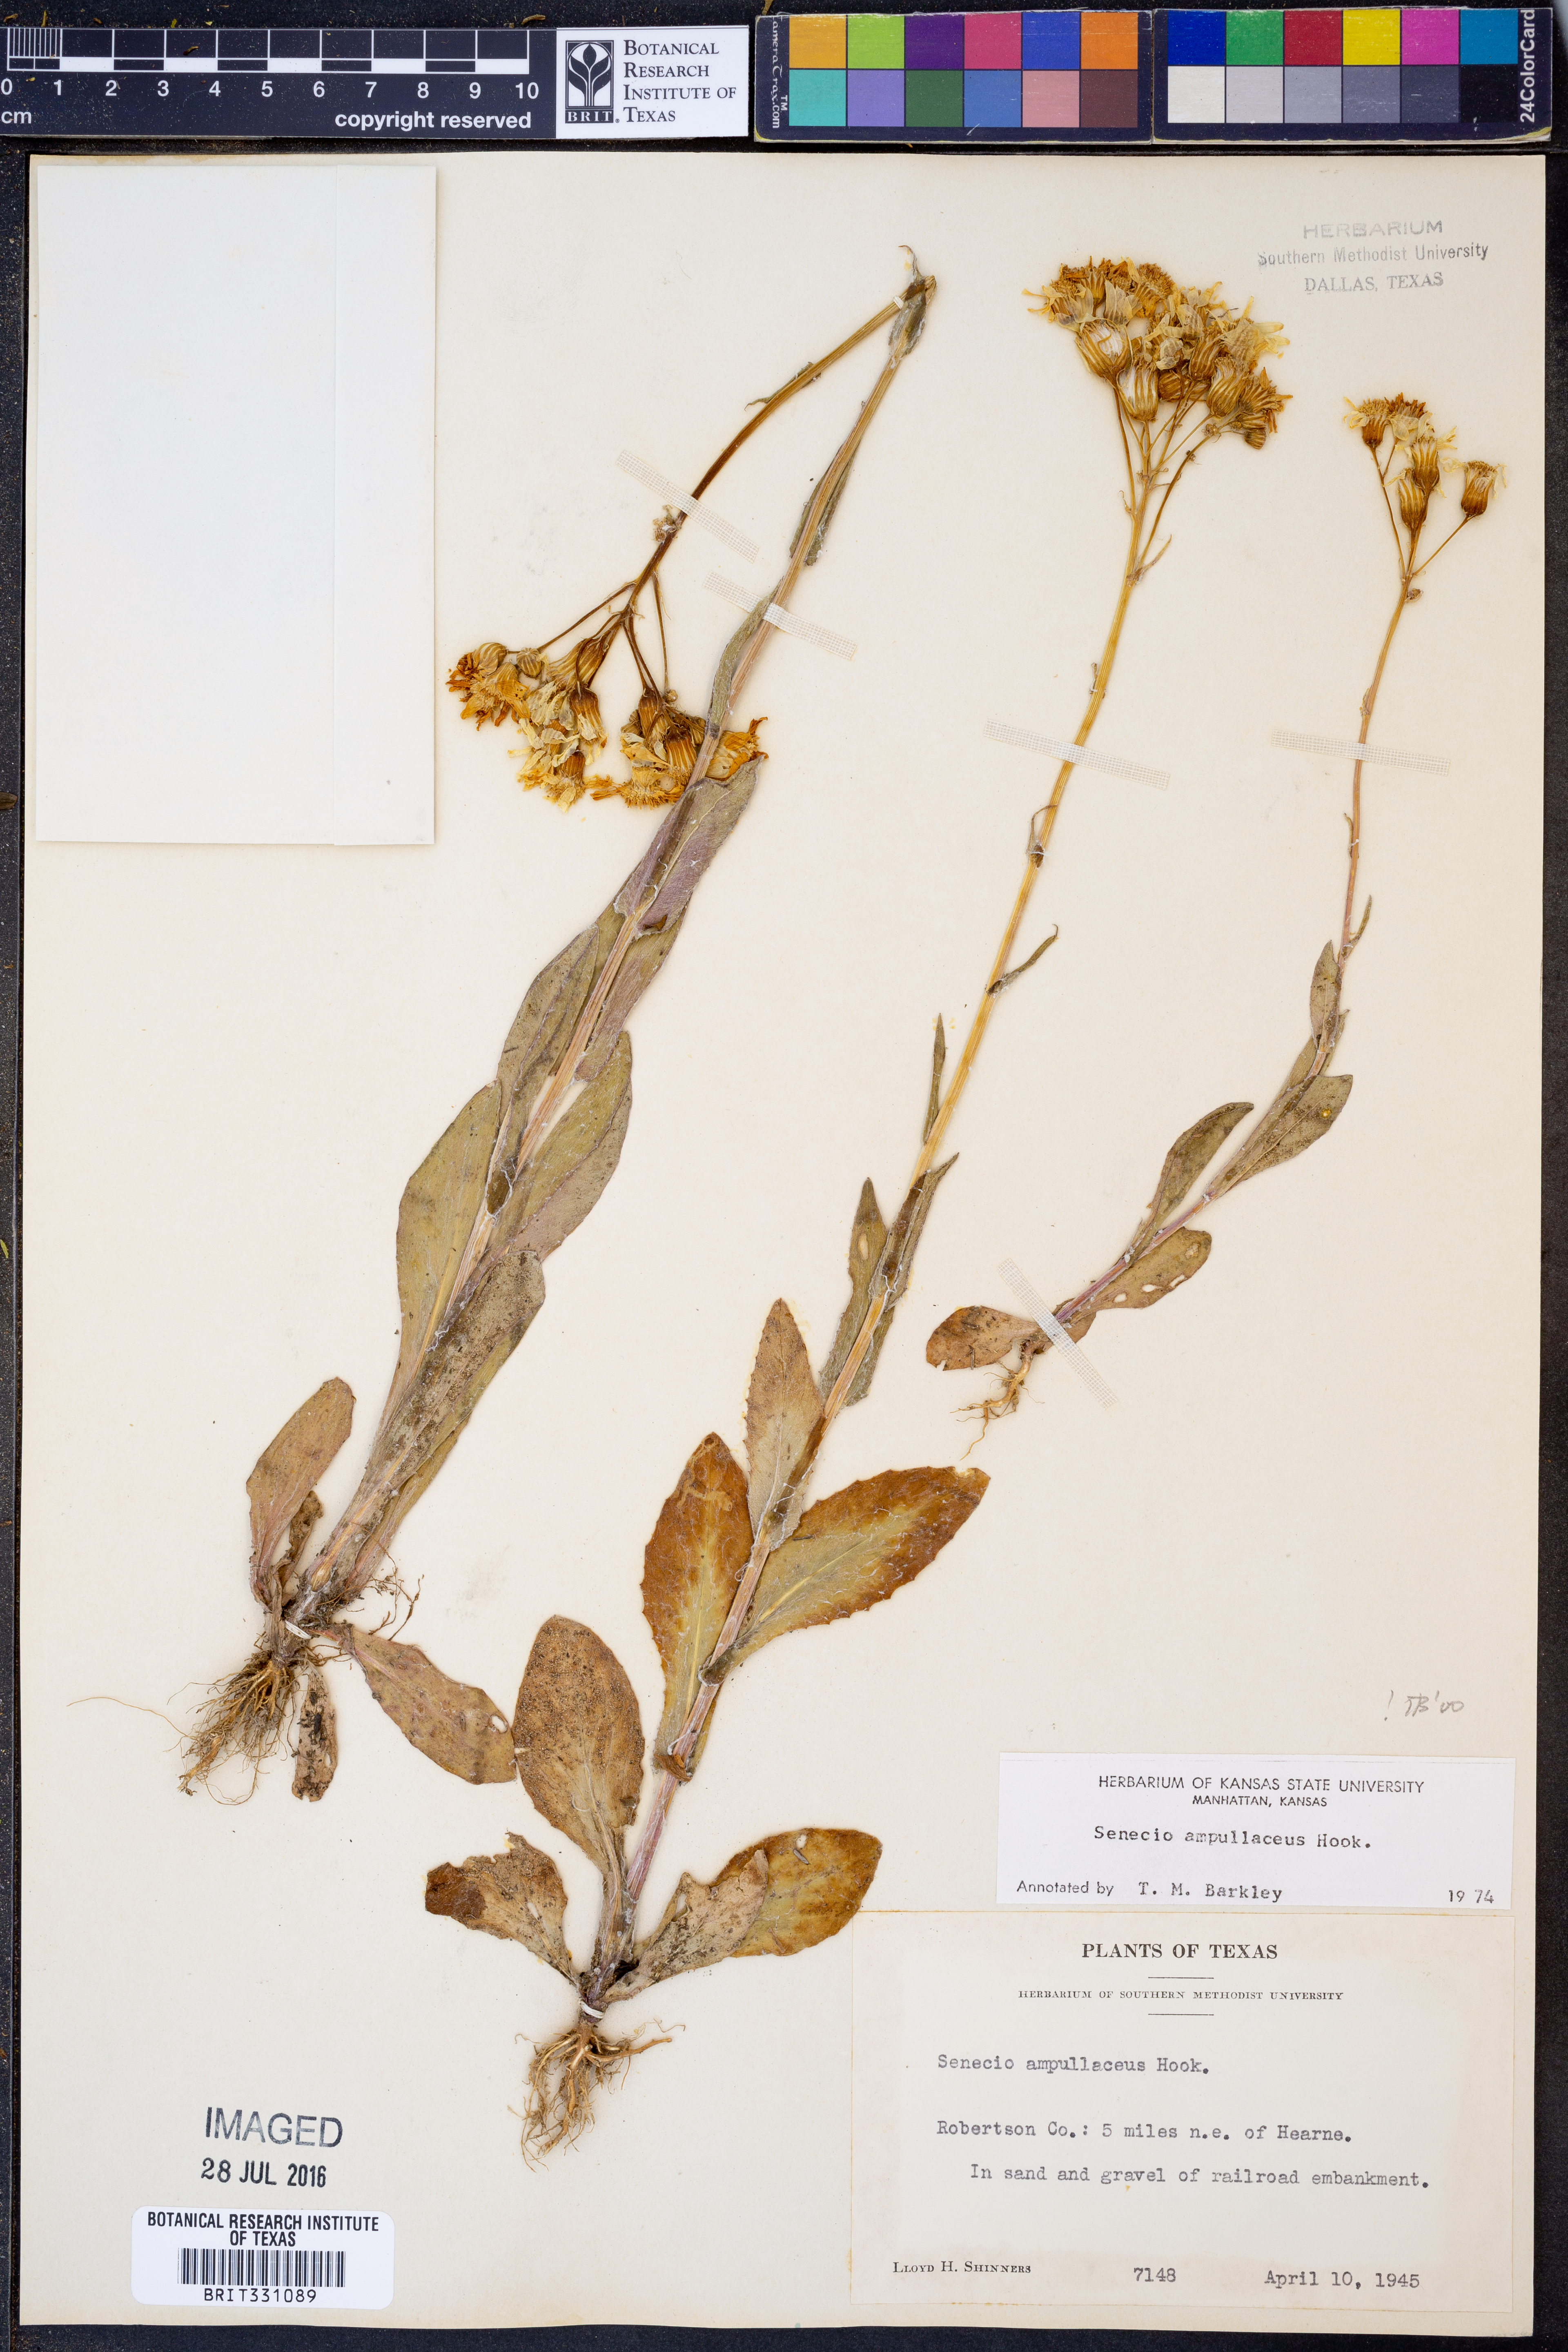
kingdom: Plantae
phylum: Tracheophyta
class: Magnoliopsida
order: Asterales
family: Asteraceae
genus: Senecio
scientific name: Senecio ampullaceus
